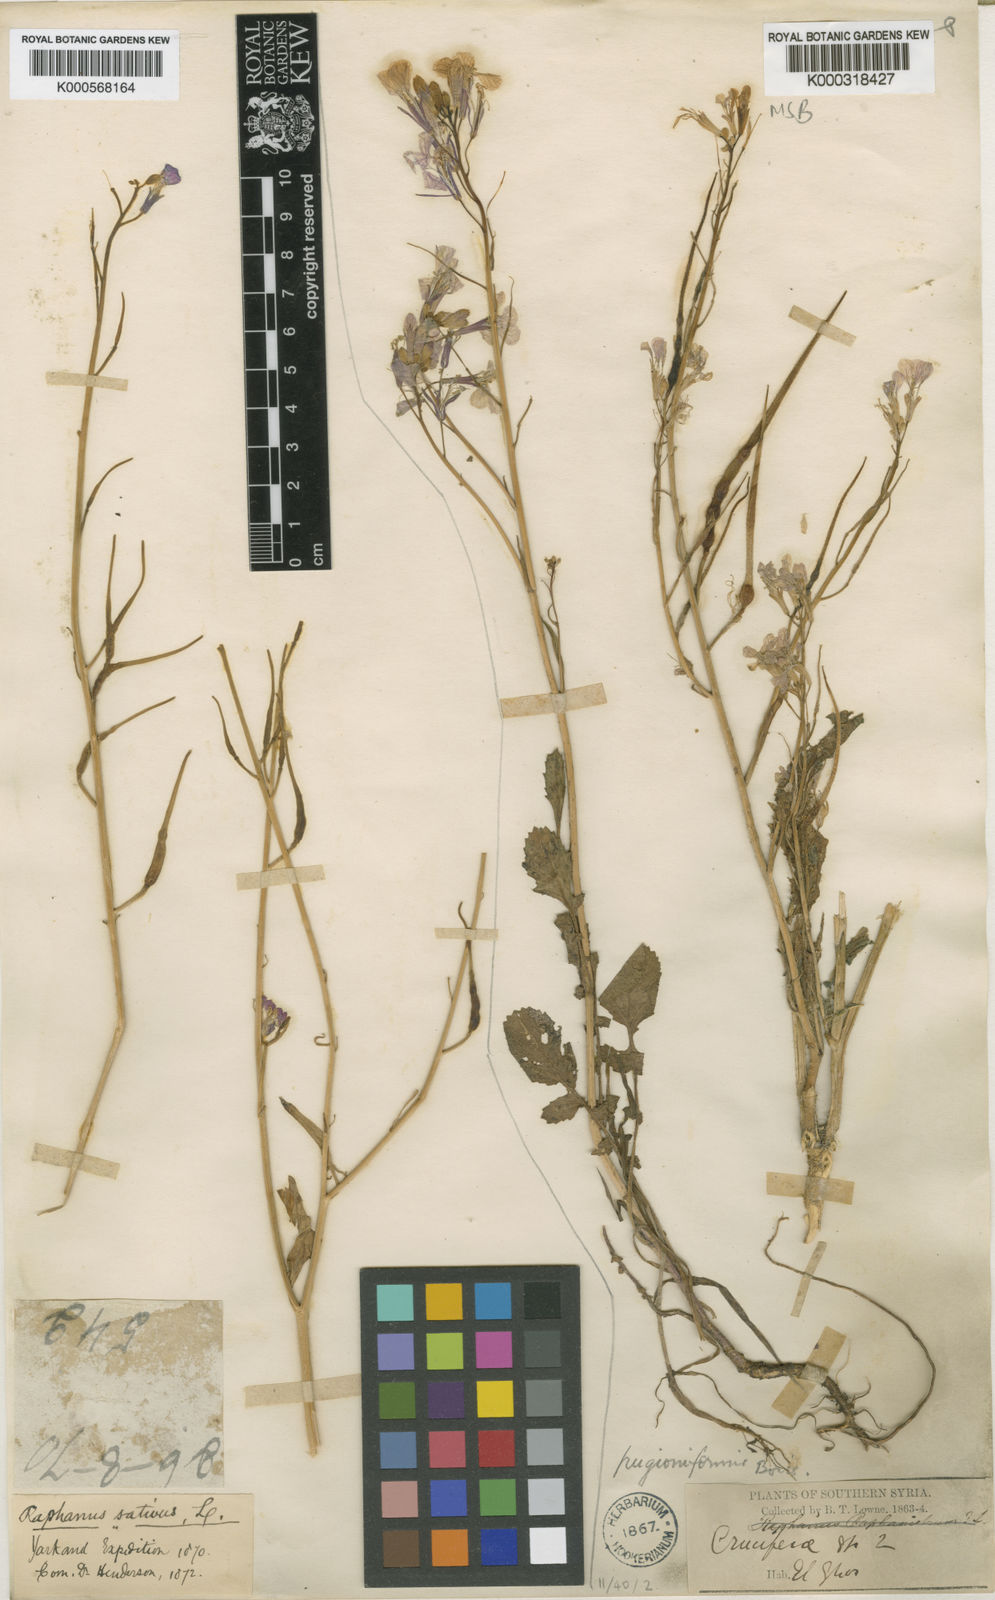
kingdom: Plantae
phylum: Tracheophyta
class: Magnoliopsida
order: Brassicales
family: Brassicaceae
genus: Raphanus
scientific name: Raphanus raphanistrum
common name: Wild radish
